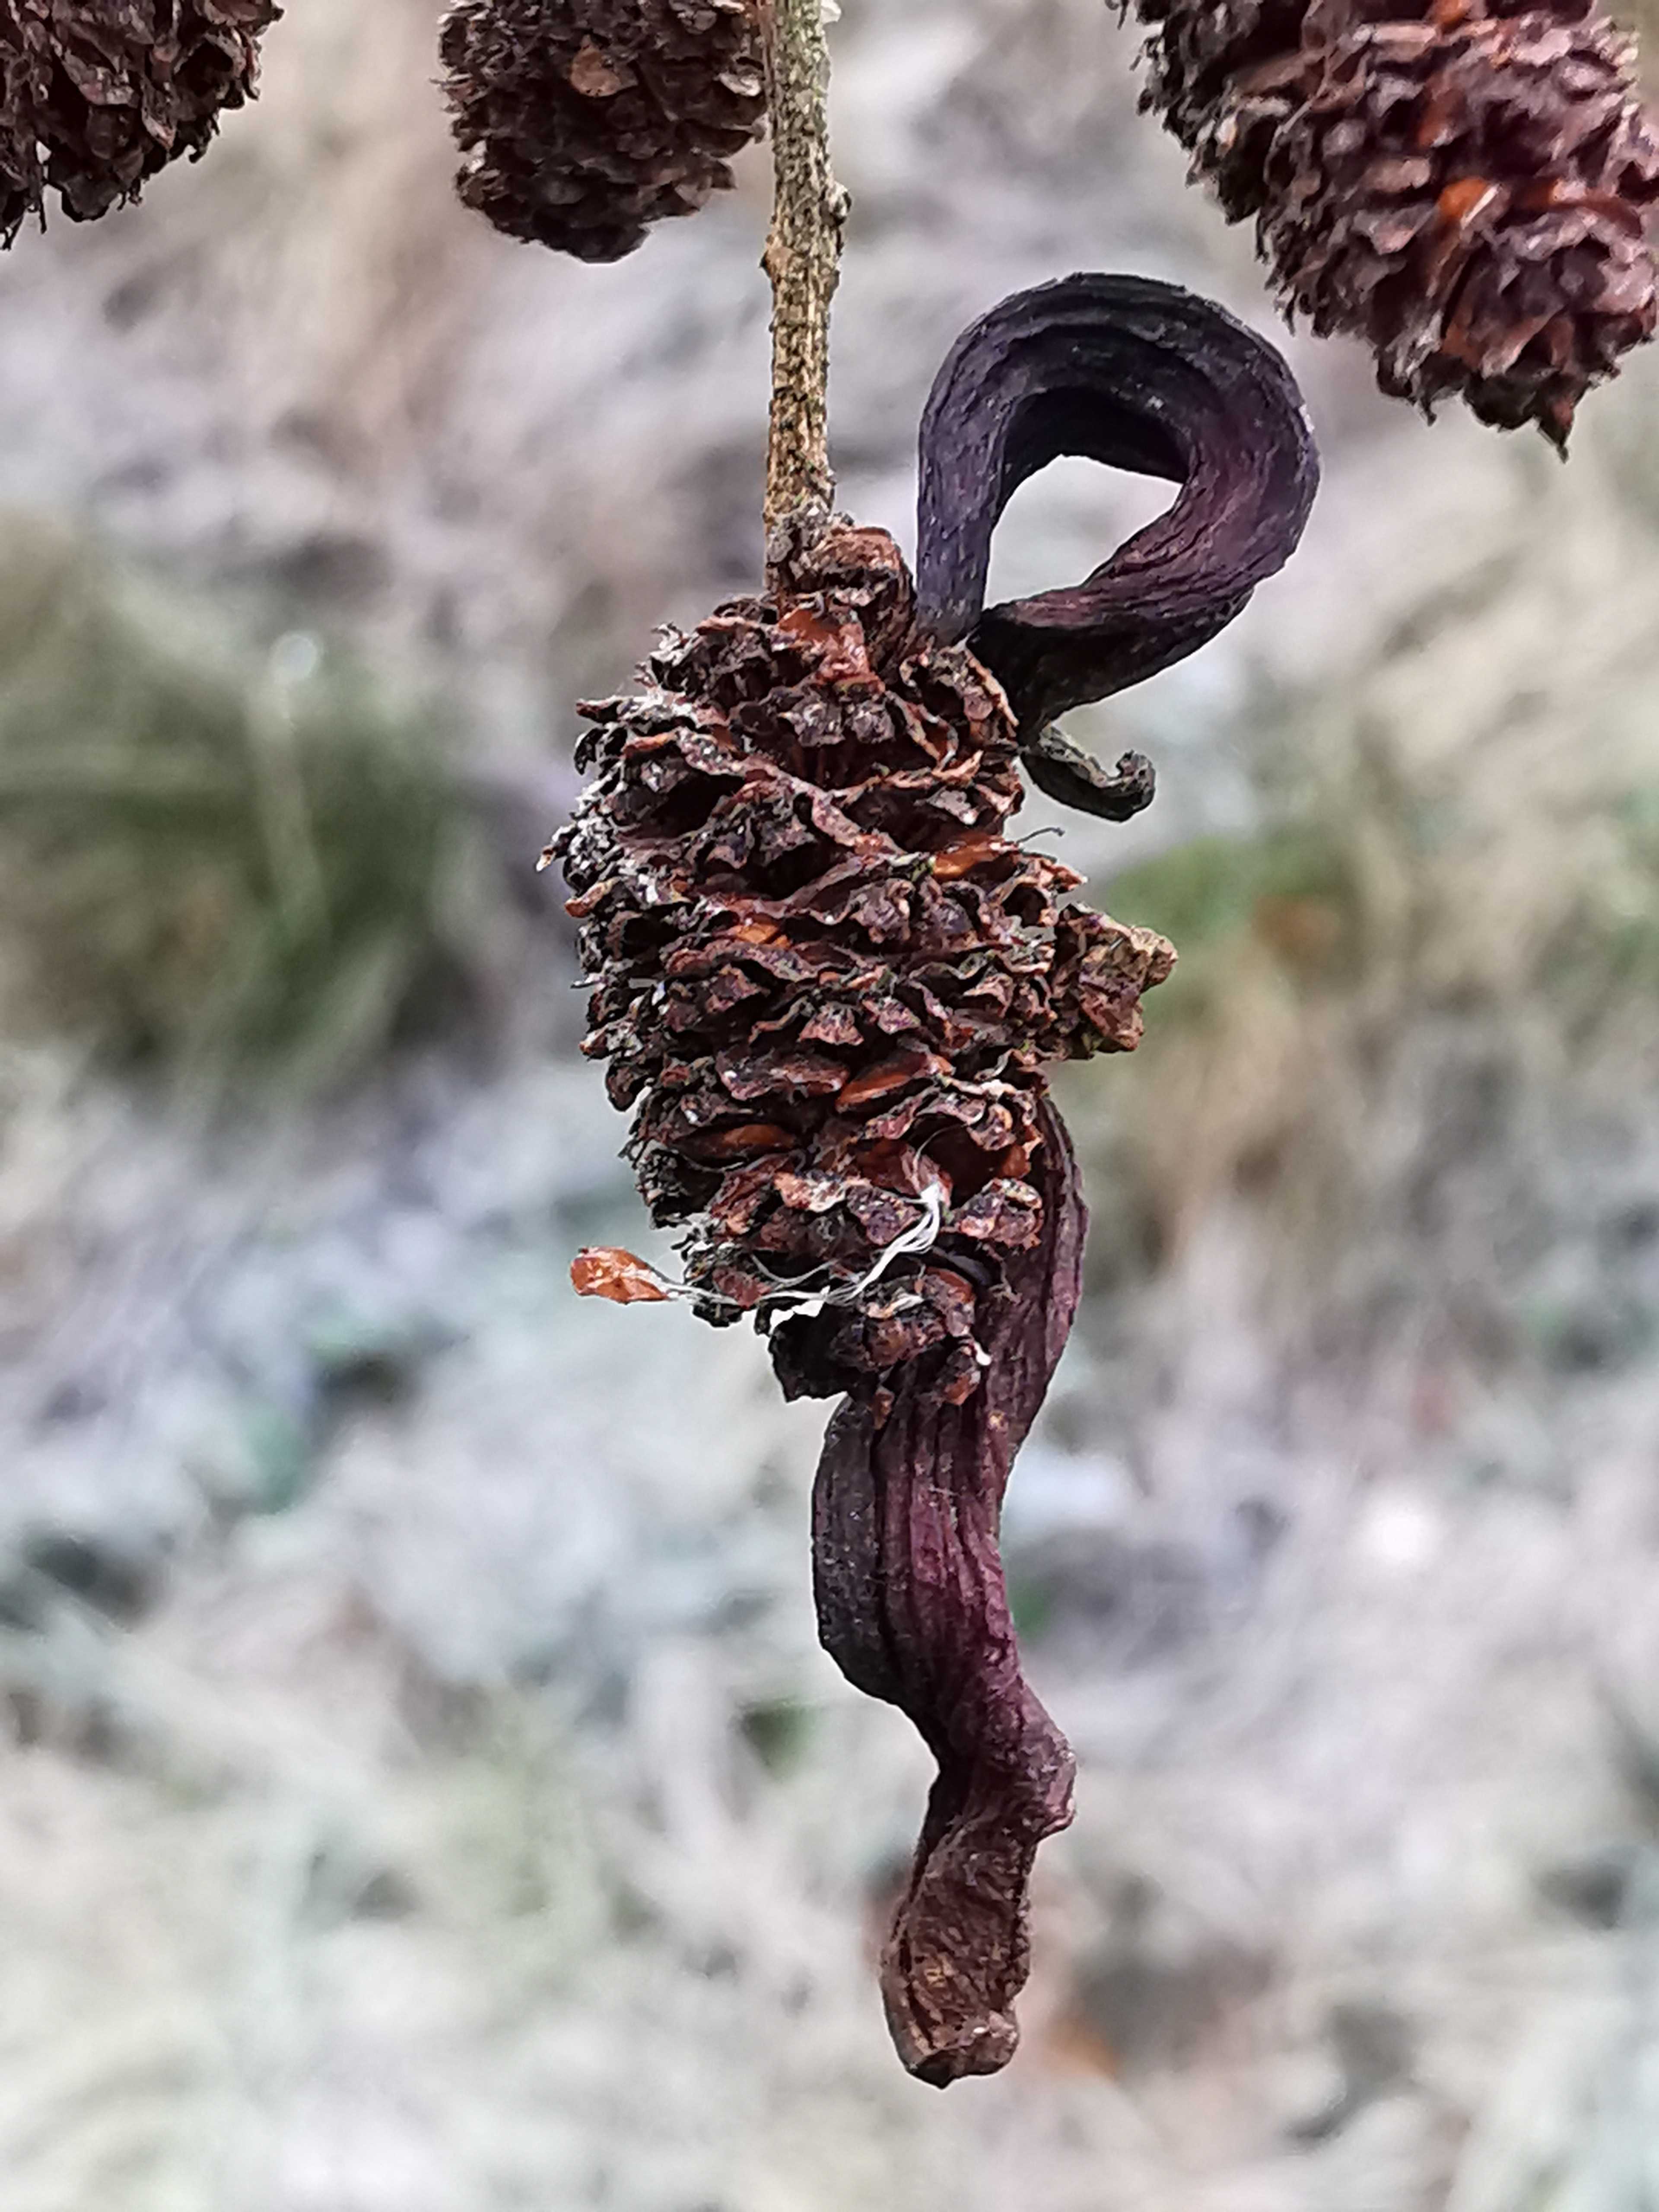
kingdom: Fungi
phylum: Ascomycota
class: Taphrinomycetes
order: Taphrinales
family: Taphrinaceae
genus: Taphrina
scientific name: Taphrina alni
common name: Alder tongue
